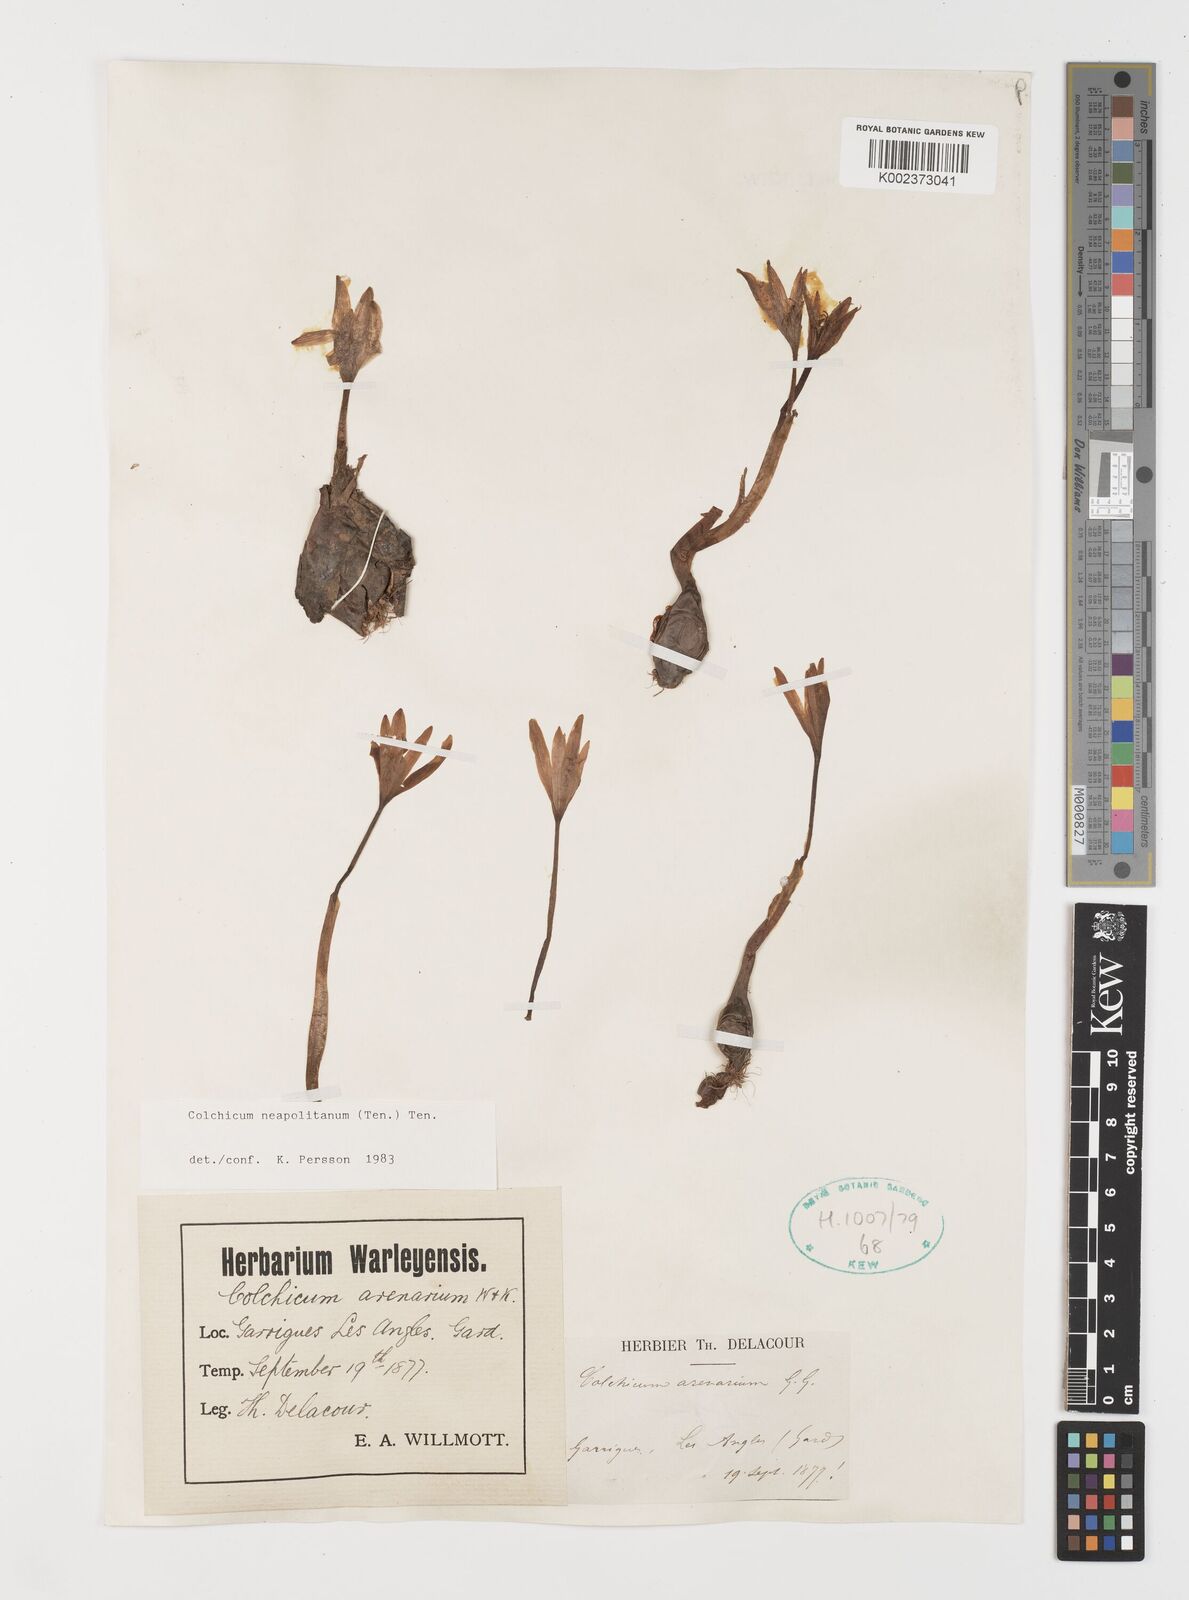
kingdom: Plantae
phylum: Tracheophyta
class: Liliopsida
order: Liliales
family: Colchicaceae
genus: Colchicum
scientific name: Colchicum neapolitanum
